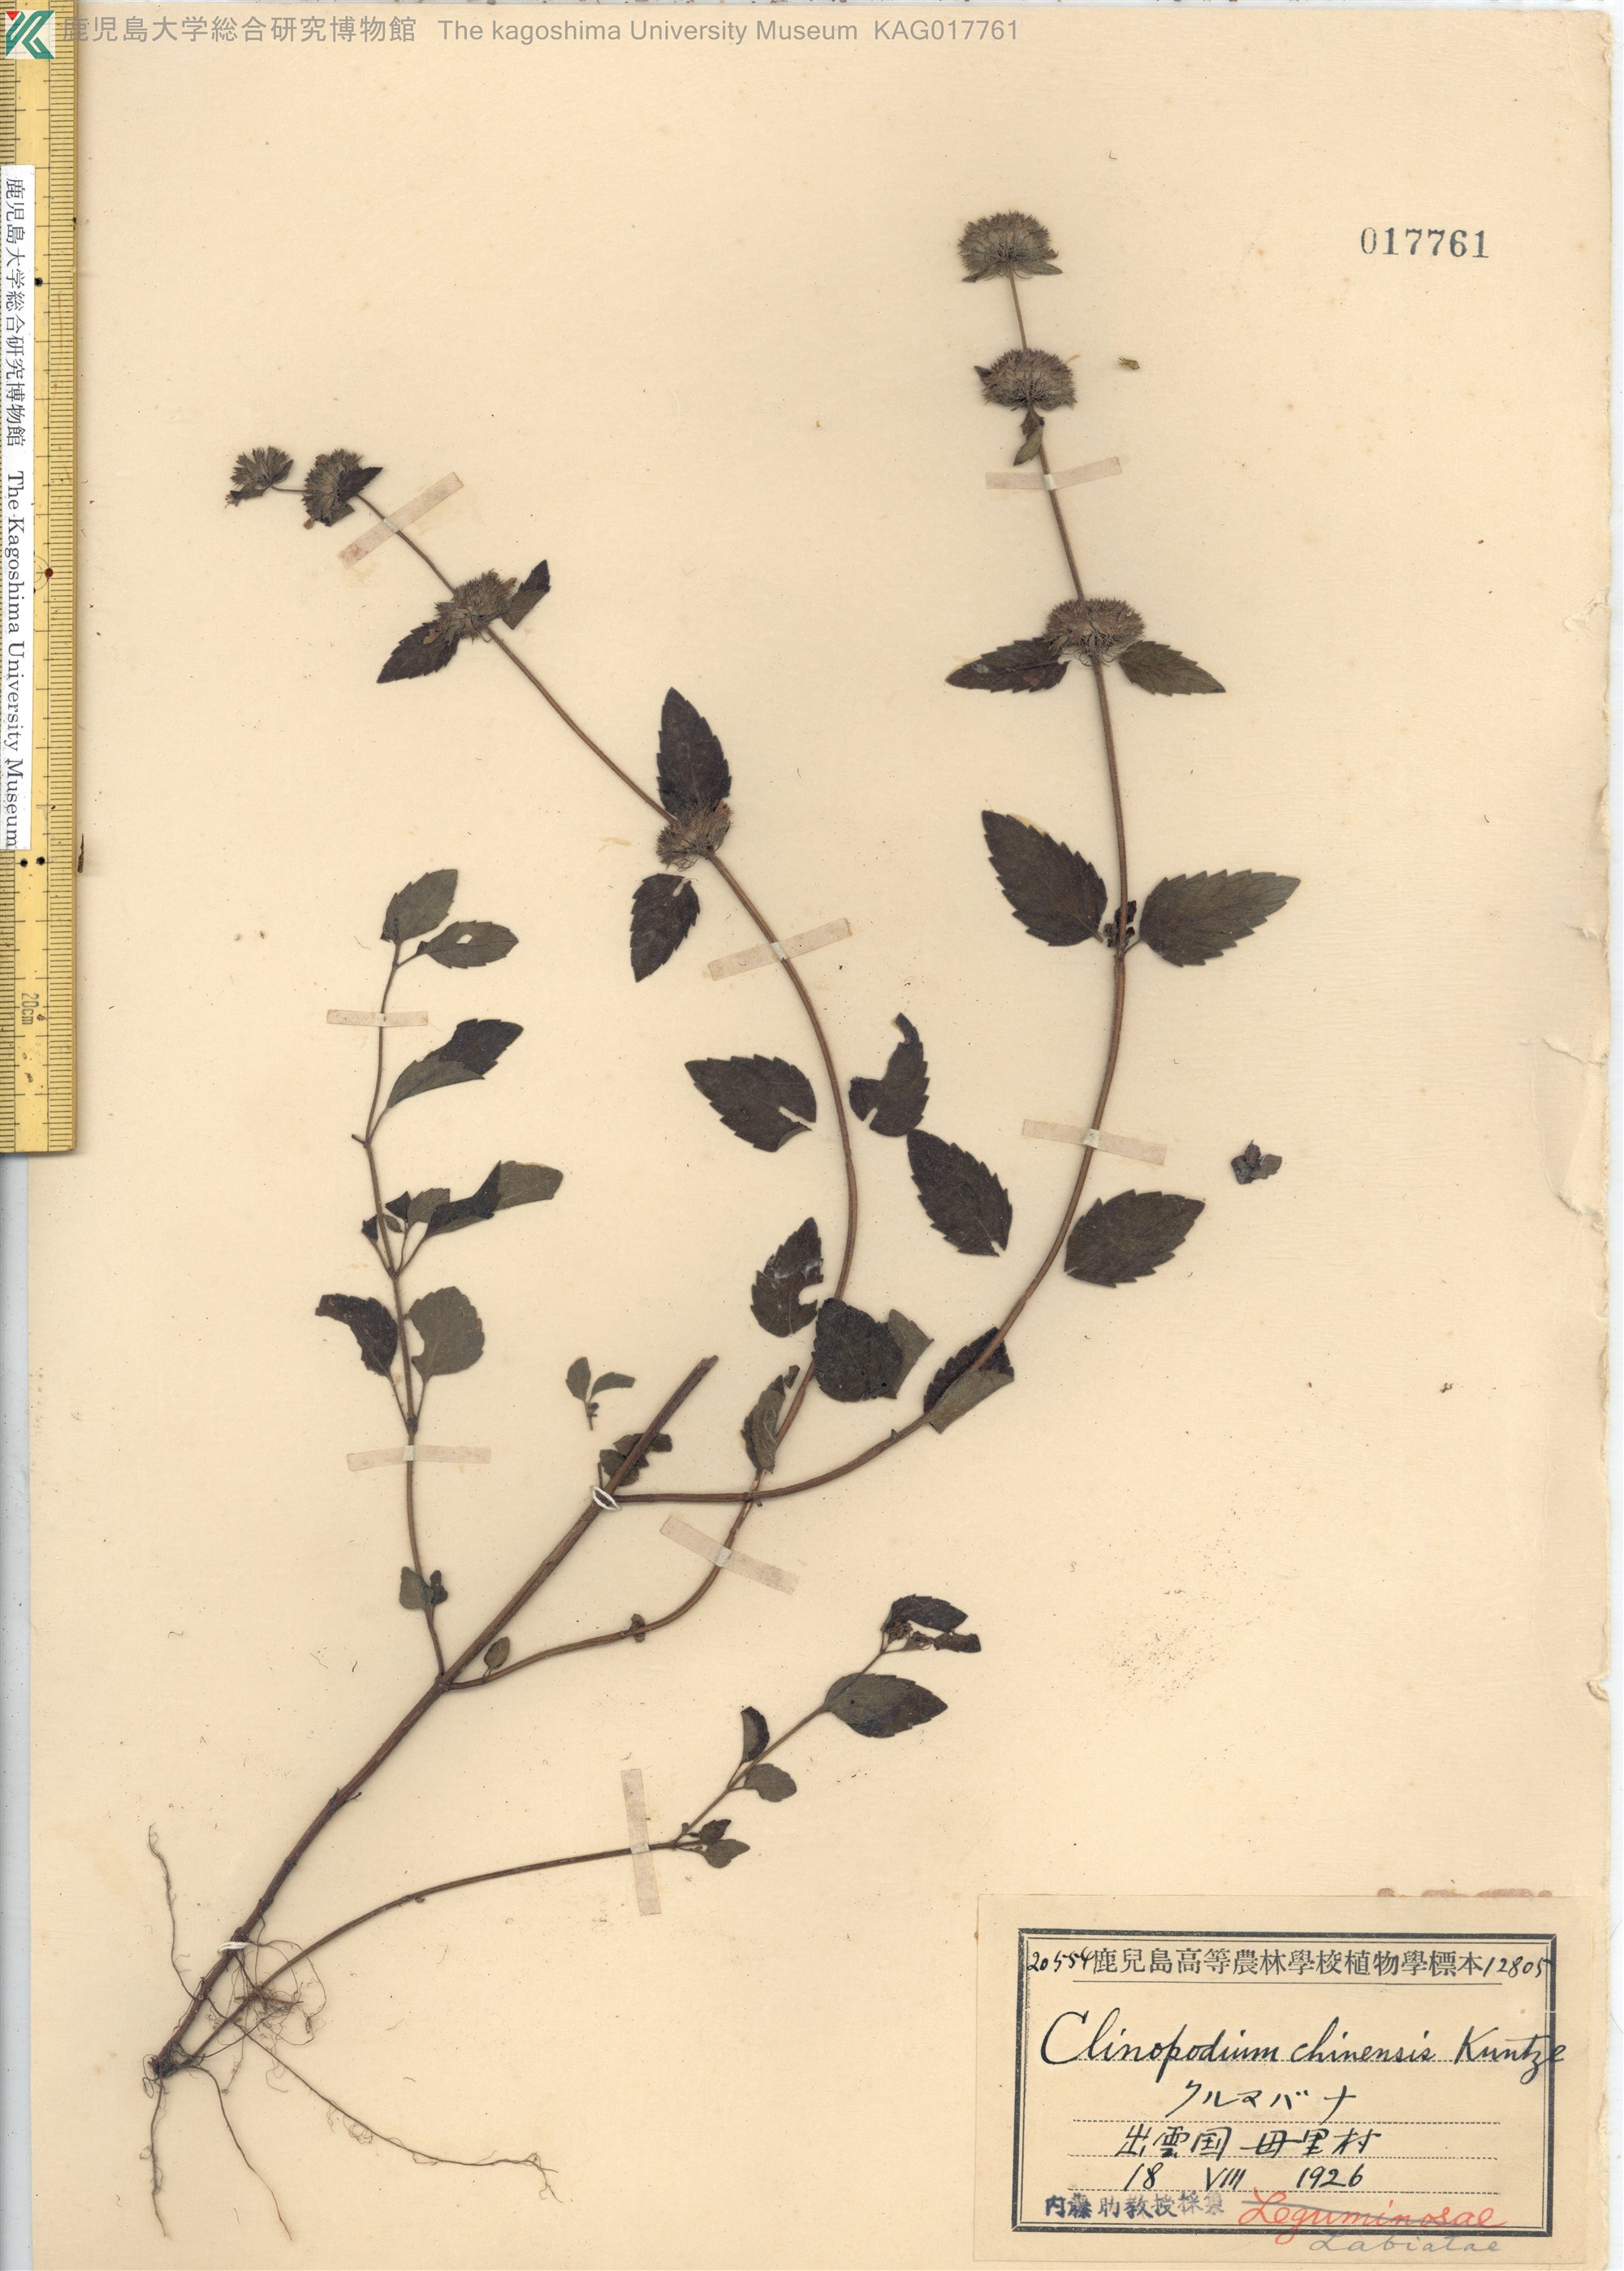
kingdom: Plantae
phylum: Tracheophyta
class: Magnoliopsida
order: Lamiales
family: Lamiaceae
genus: Clinopodium
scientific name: Clinopodium chinense
